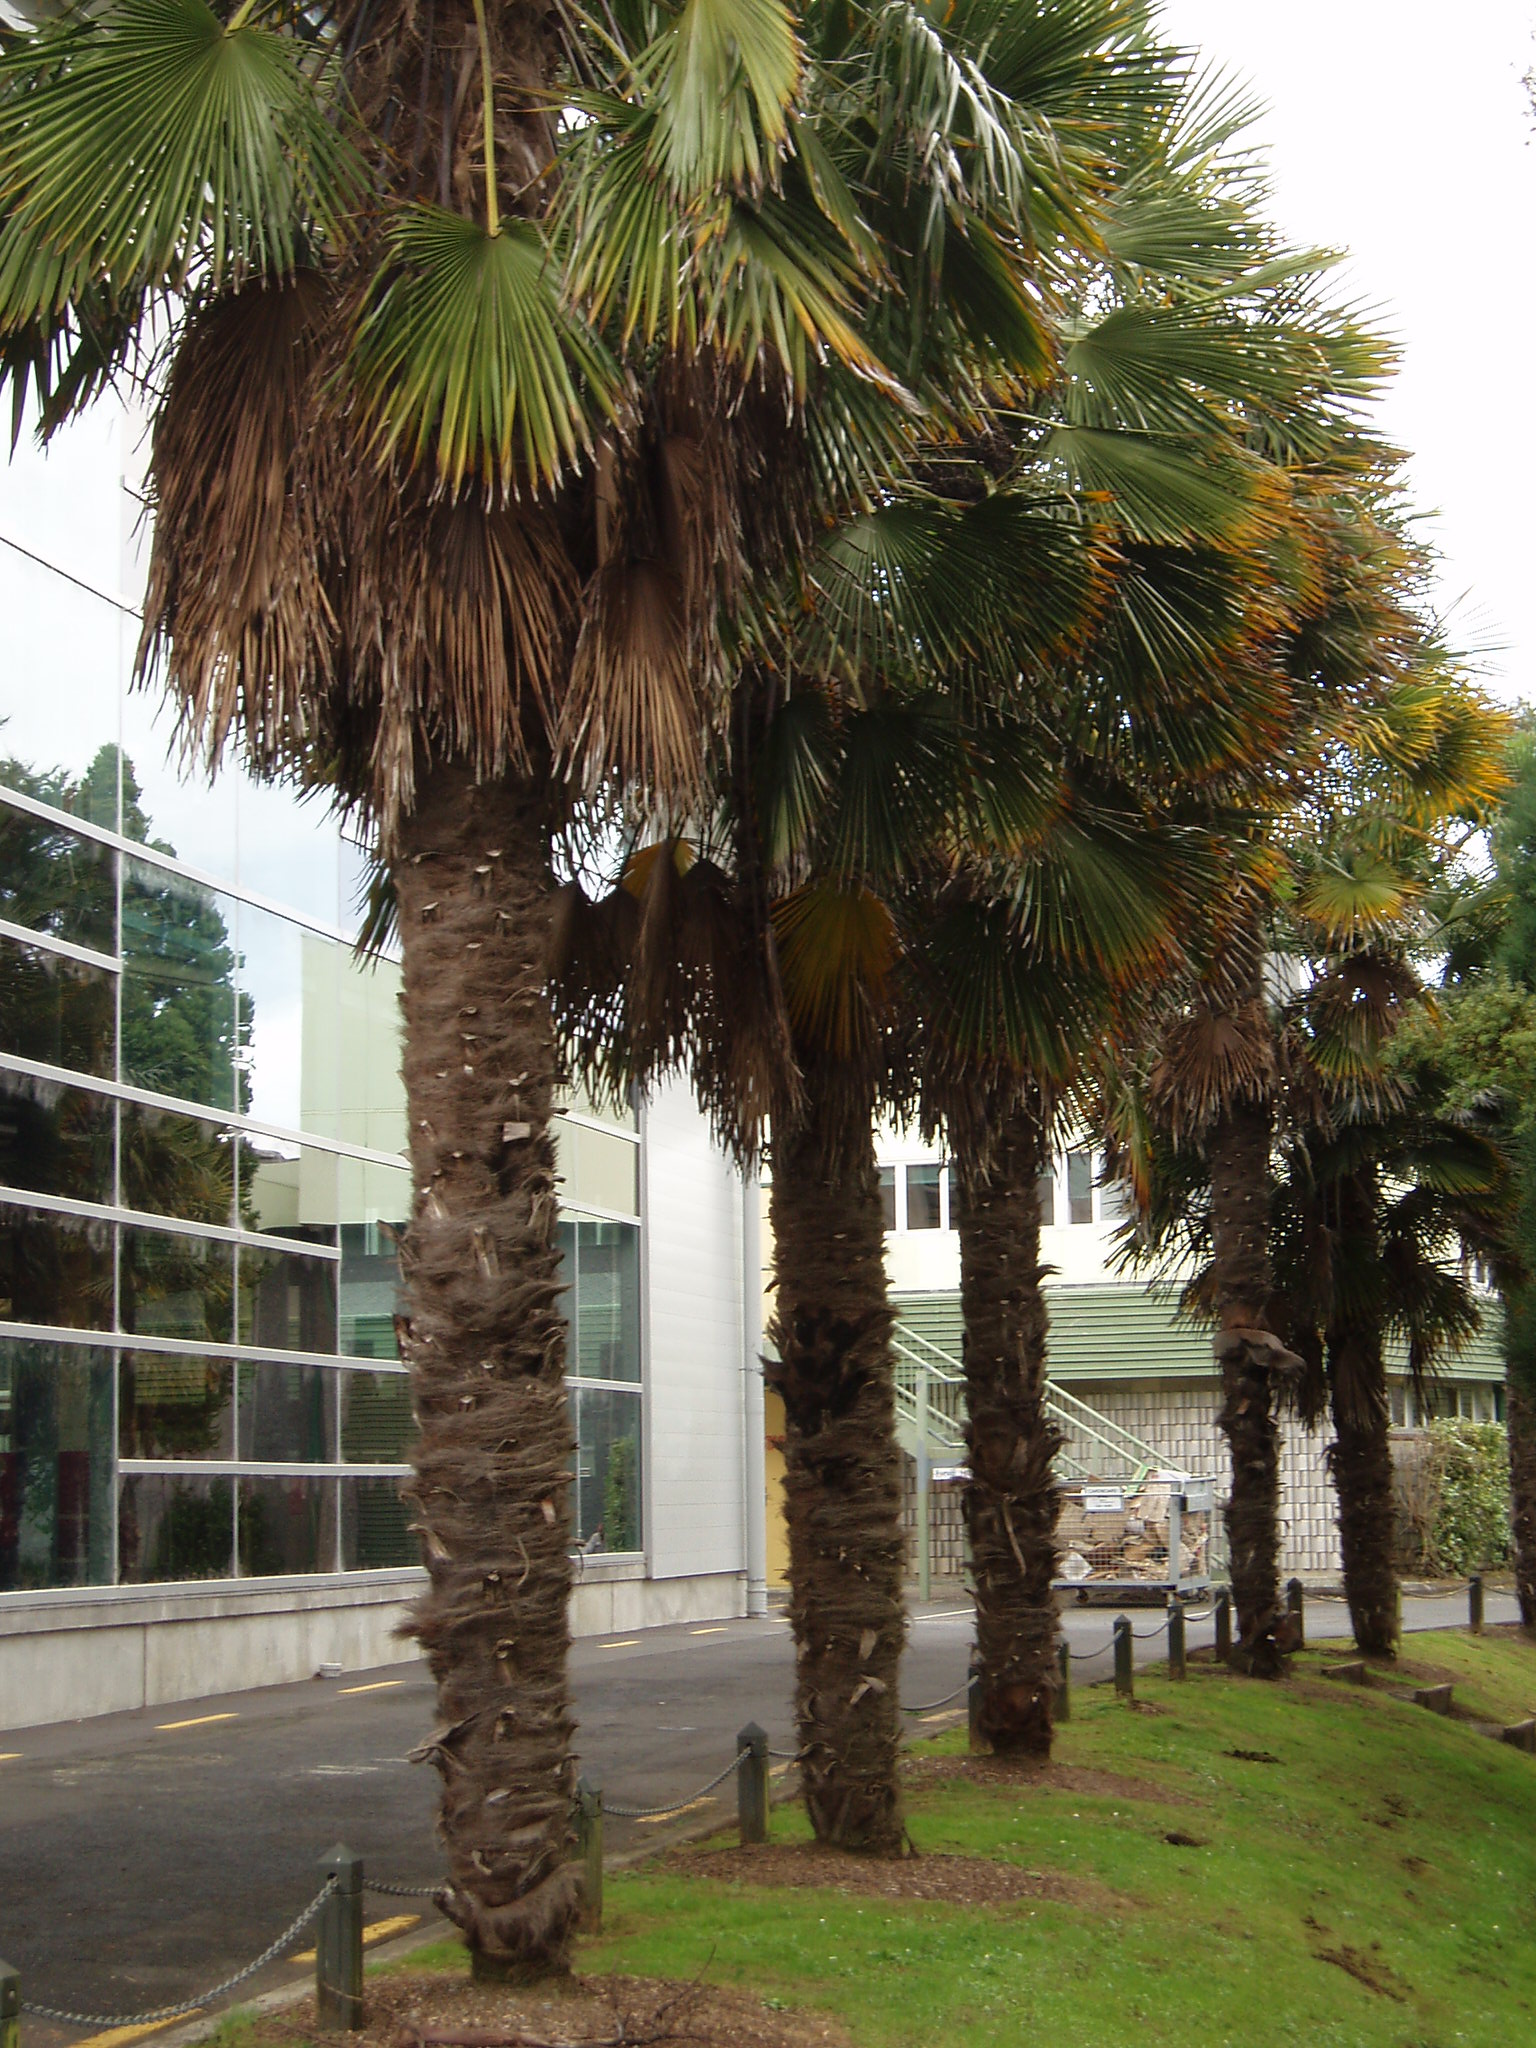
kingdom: Plantae
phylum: Tracheophyta
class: Liliopsida
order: Arecales
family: Arecaceae
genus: Trachycarpus
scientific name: Trachycarpus fortunei
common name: Chusan palm
